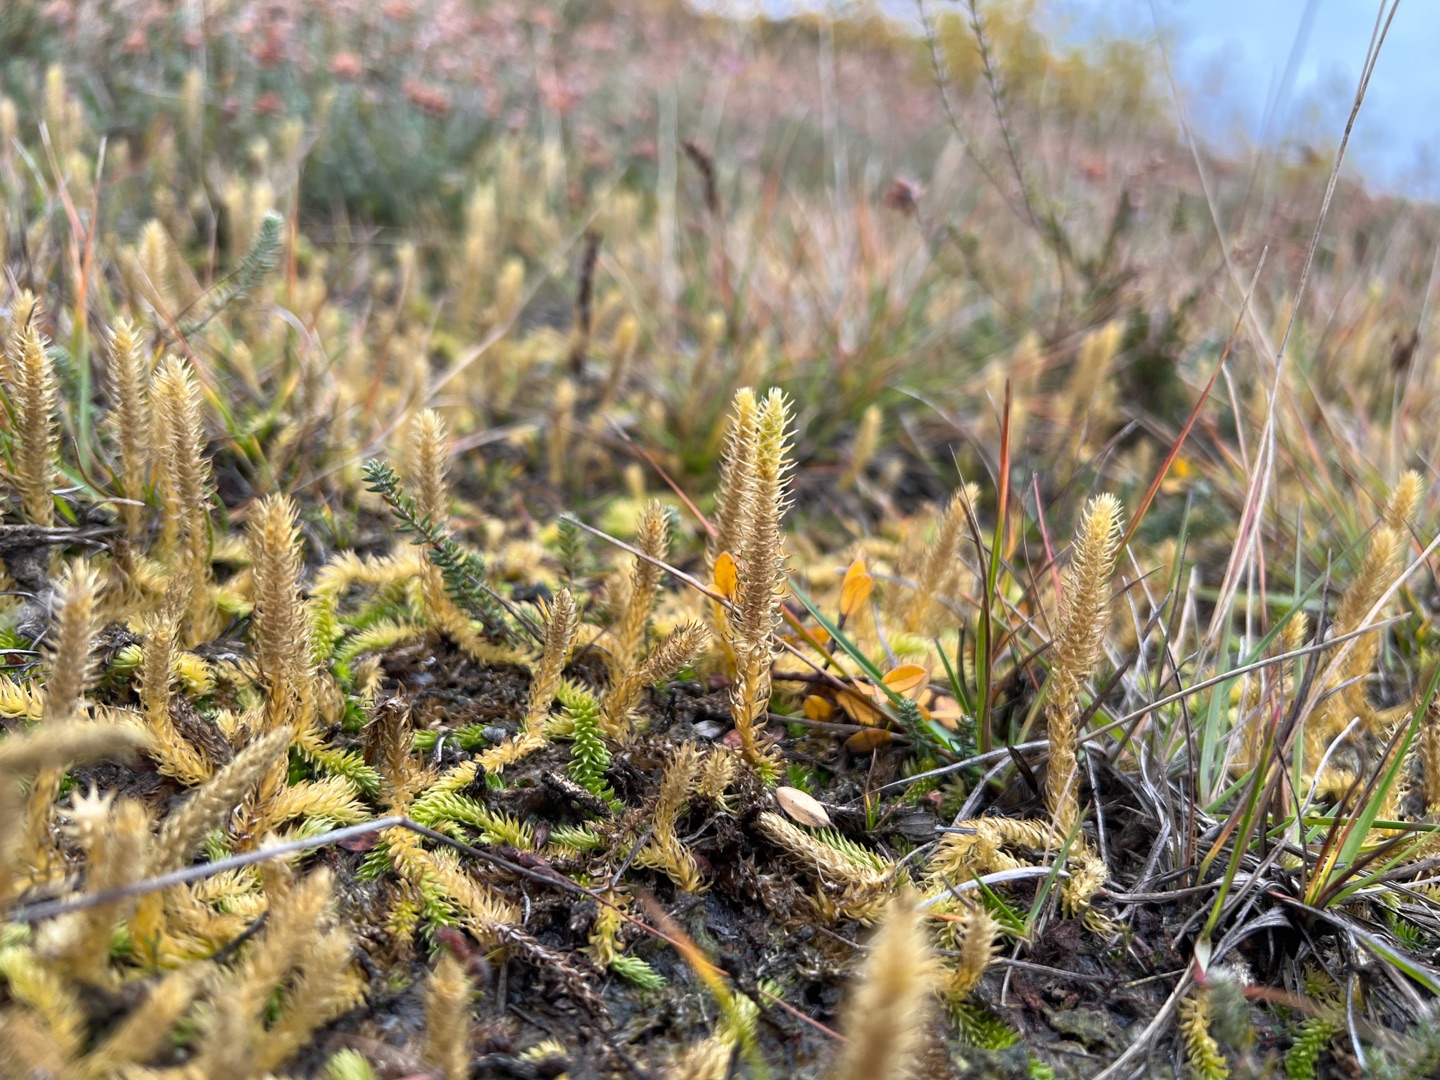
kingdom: Plantae
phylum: Tracheophyta
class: Lycopodiopsida
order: Lycopodiales
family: Lycopodiaceae
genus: Lycopodiella
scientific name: Lycopodiella inundata
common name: Liden ulvefod
